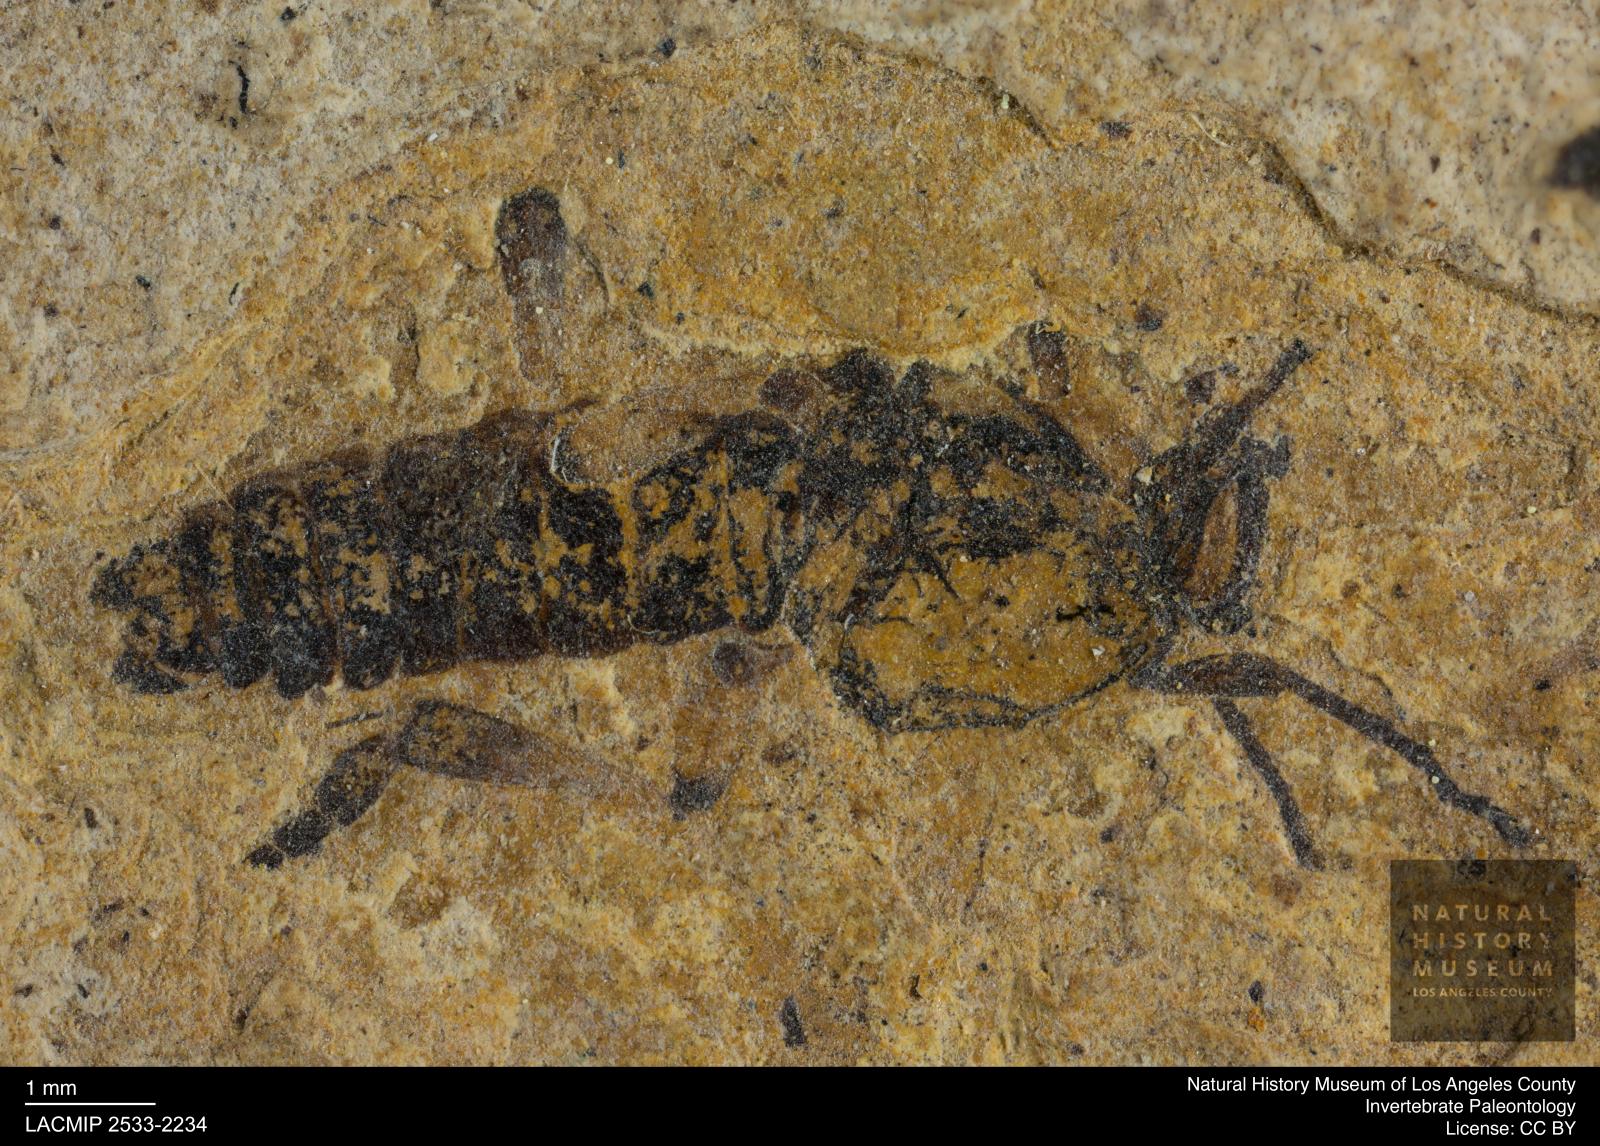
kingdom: Animalia
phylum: Arthropoda
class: Insecta
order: Diptera
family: Bibionidae
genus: Bibio
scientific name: Bibio
